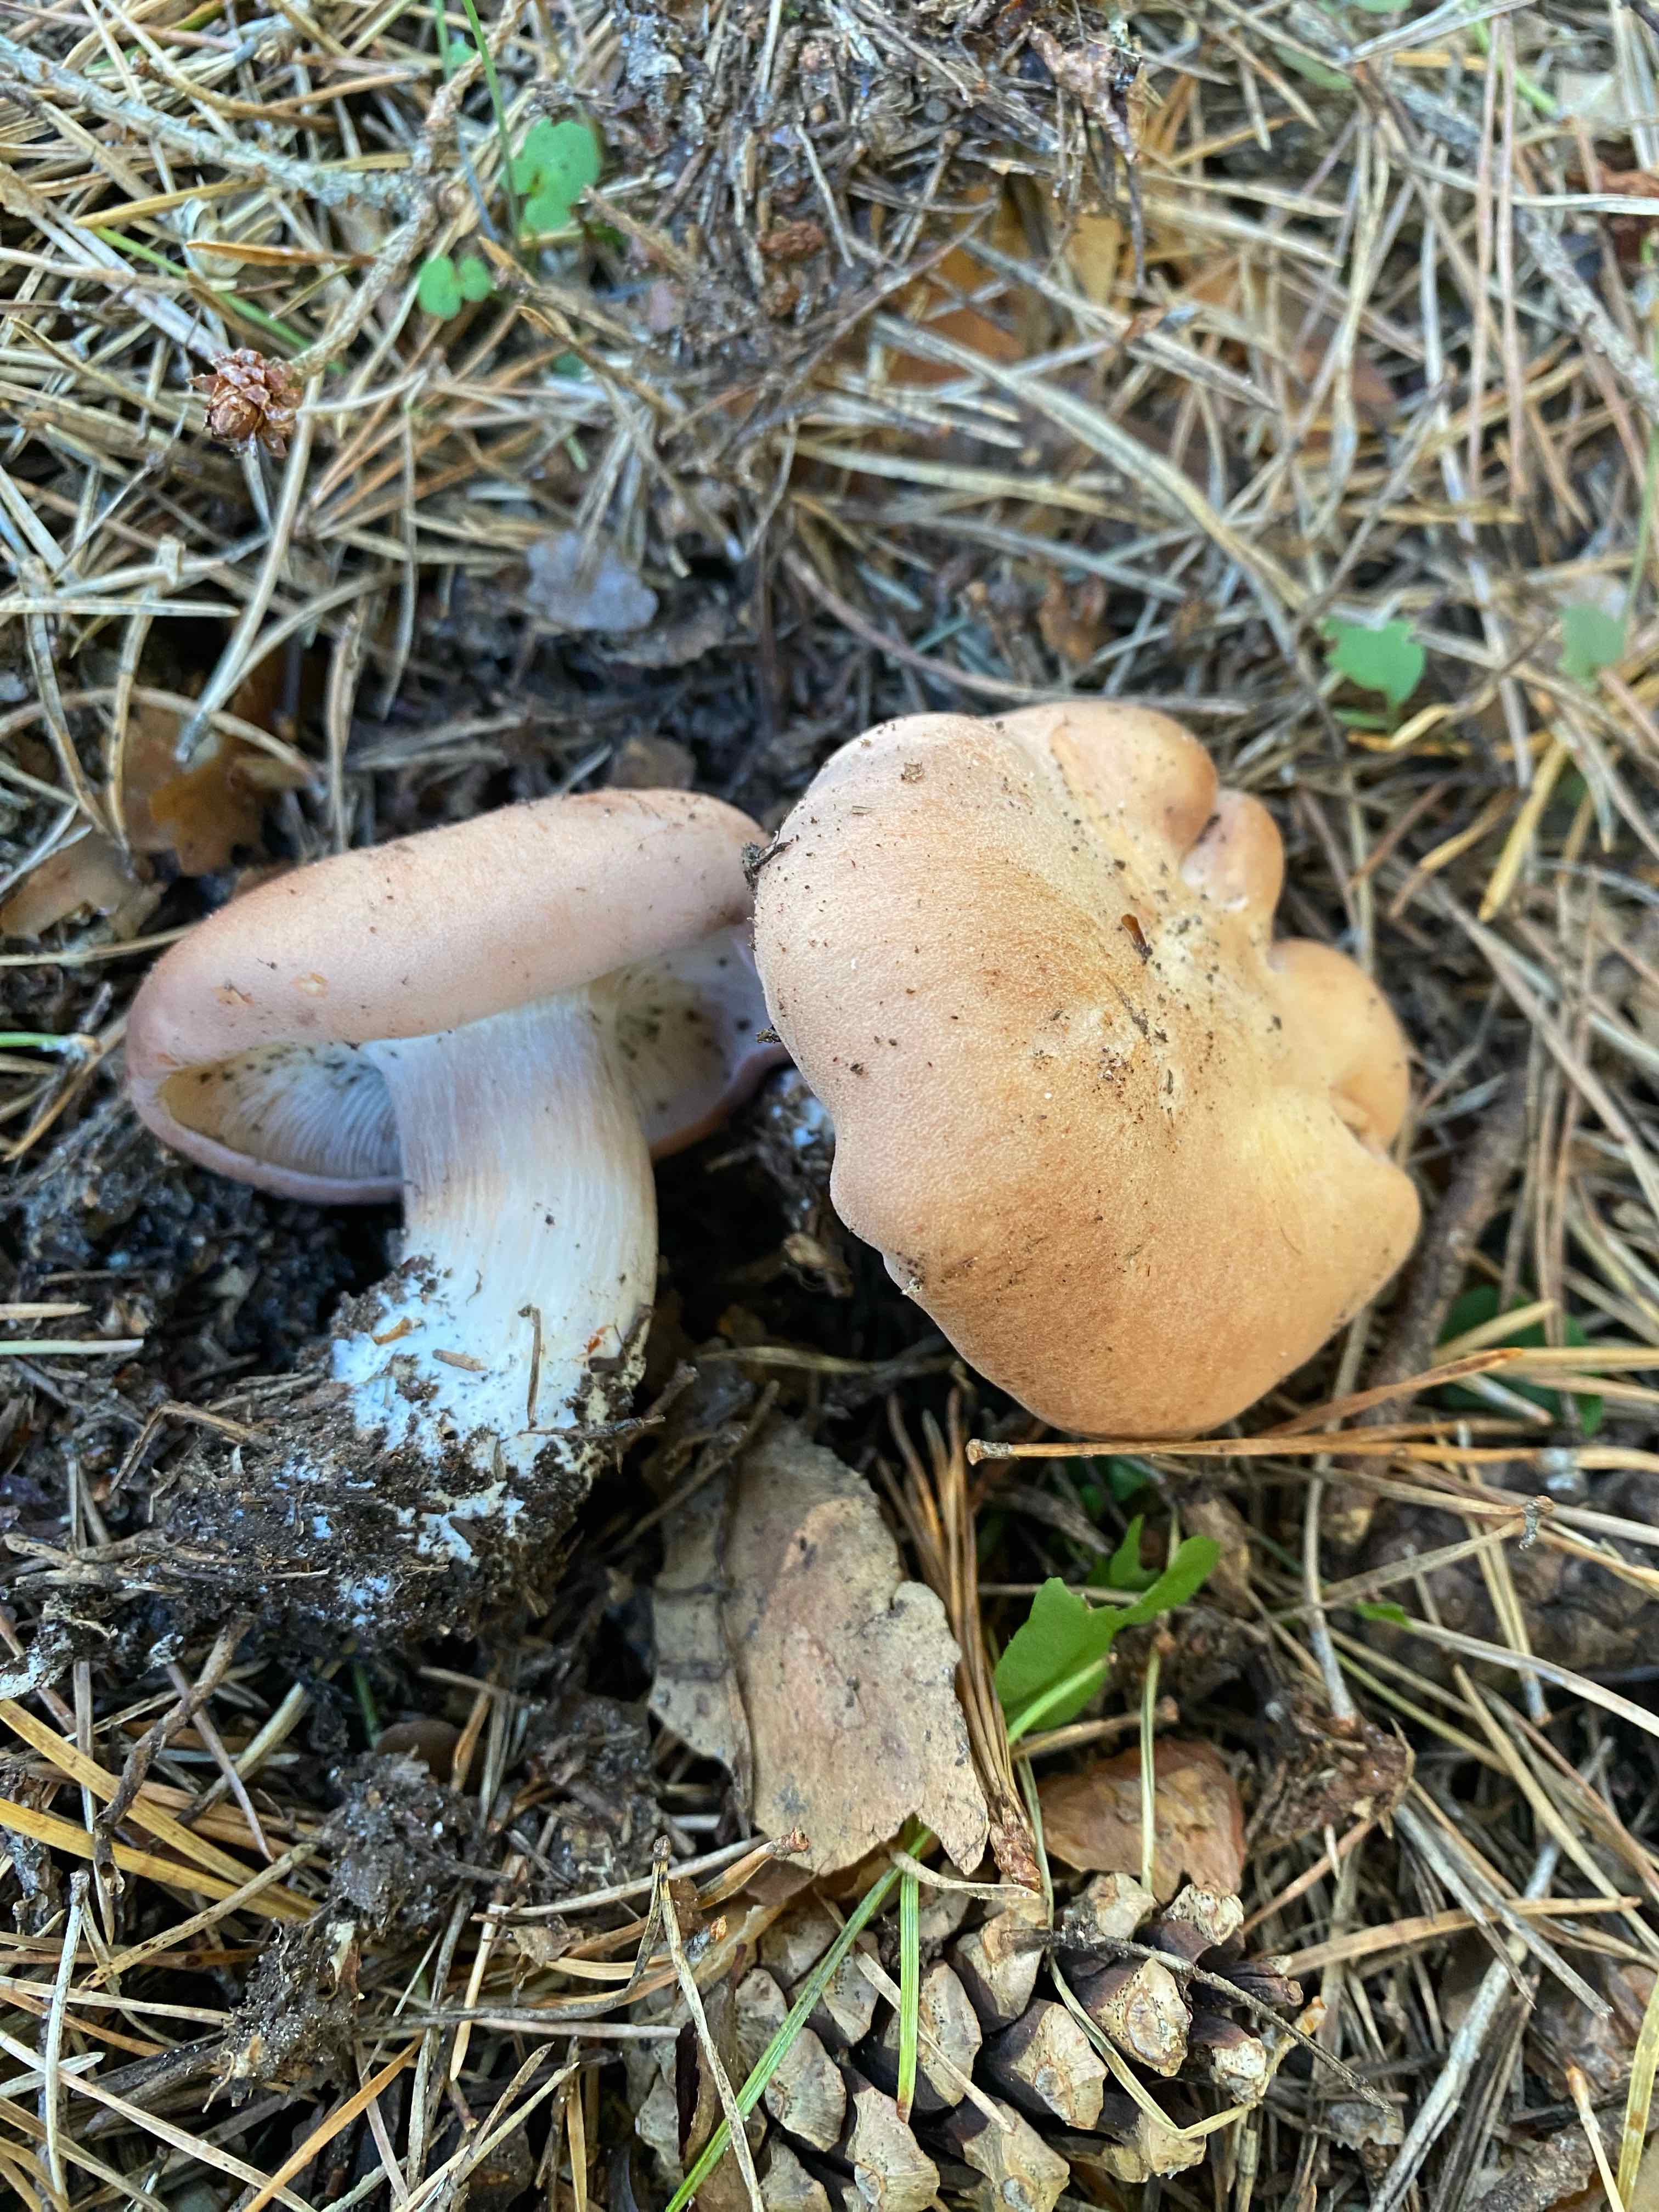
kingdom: Fungi
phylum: Basidiomycota
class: Agaricomycetes
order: Agaricales
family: Entolomataceae
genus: Clitopilus
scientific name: Clitopilus geminus
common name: kødfarvet troldhat
